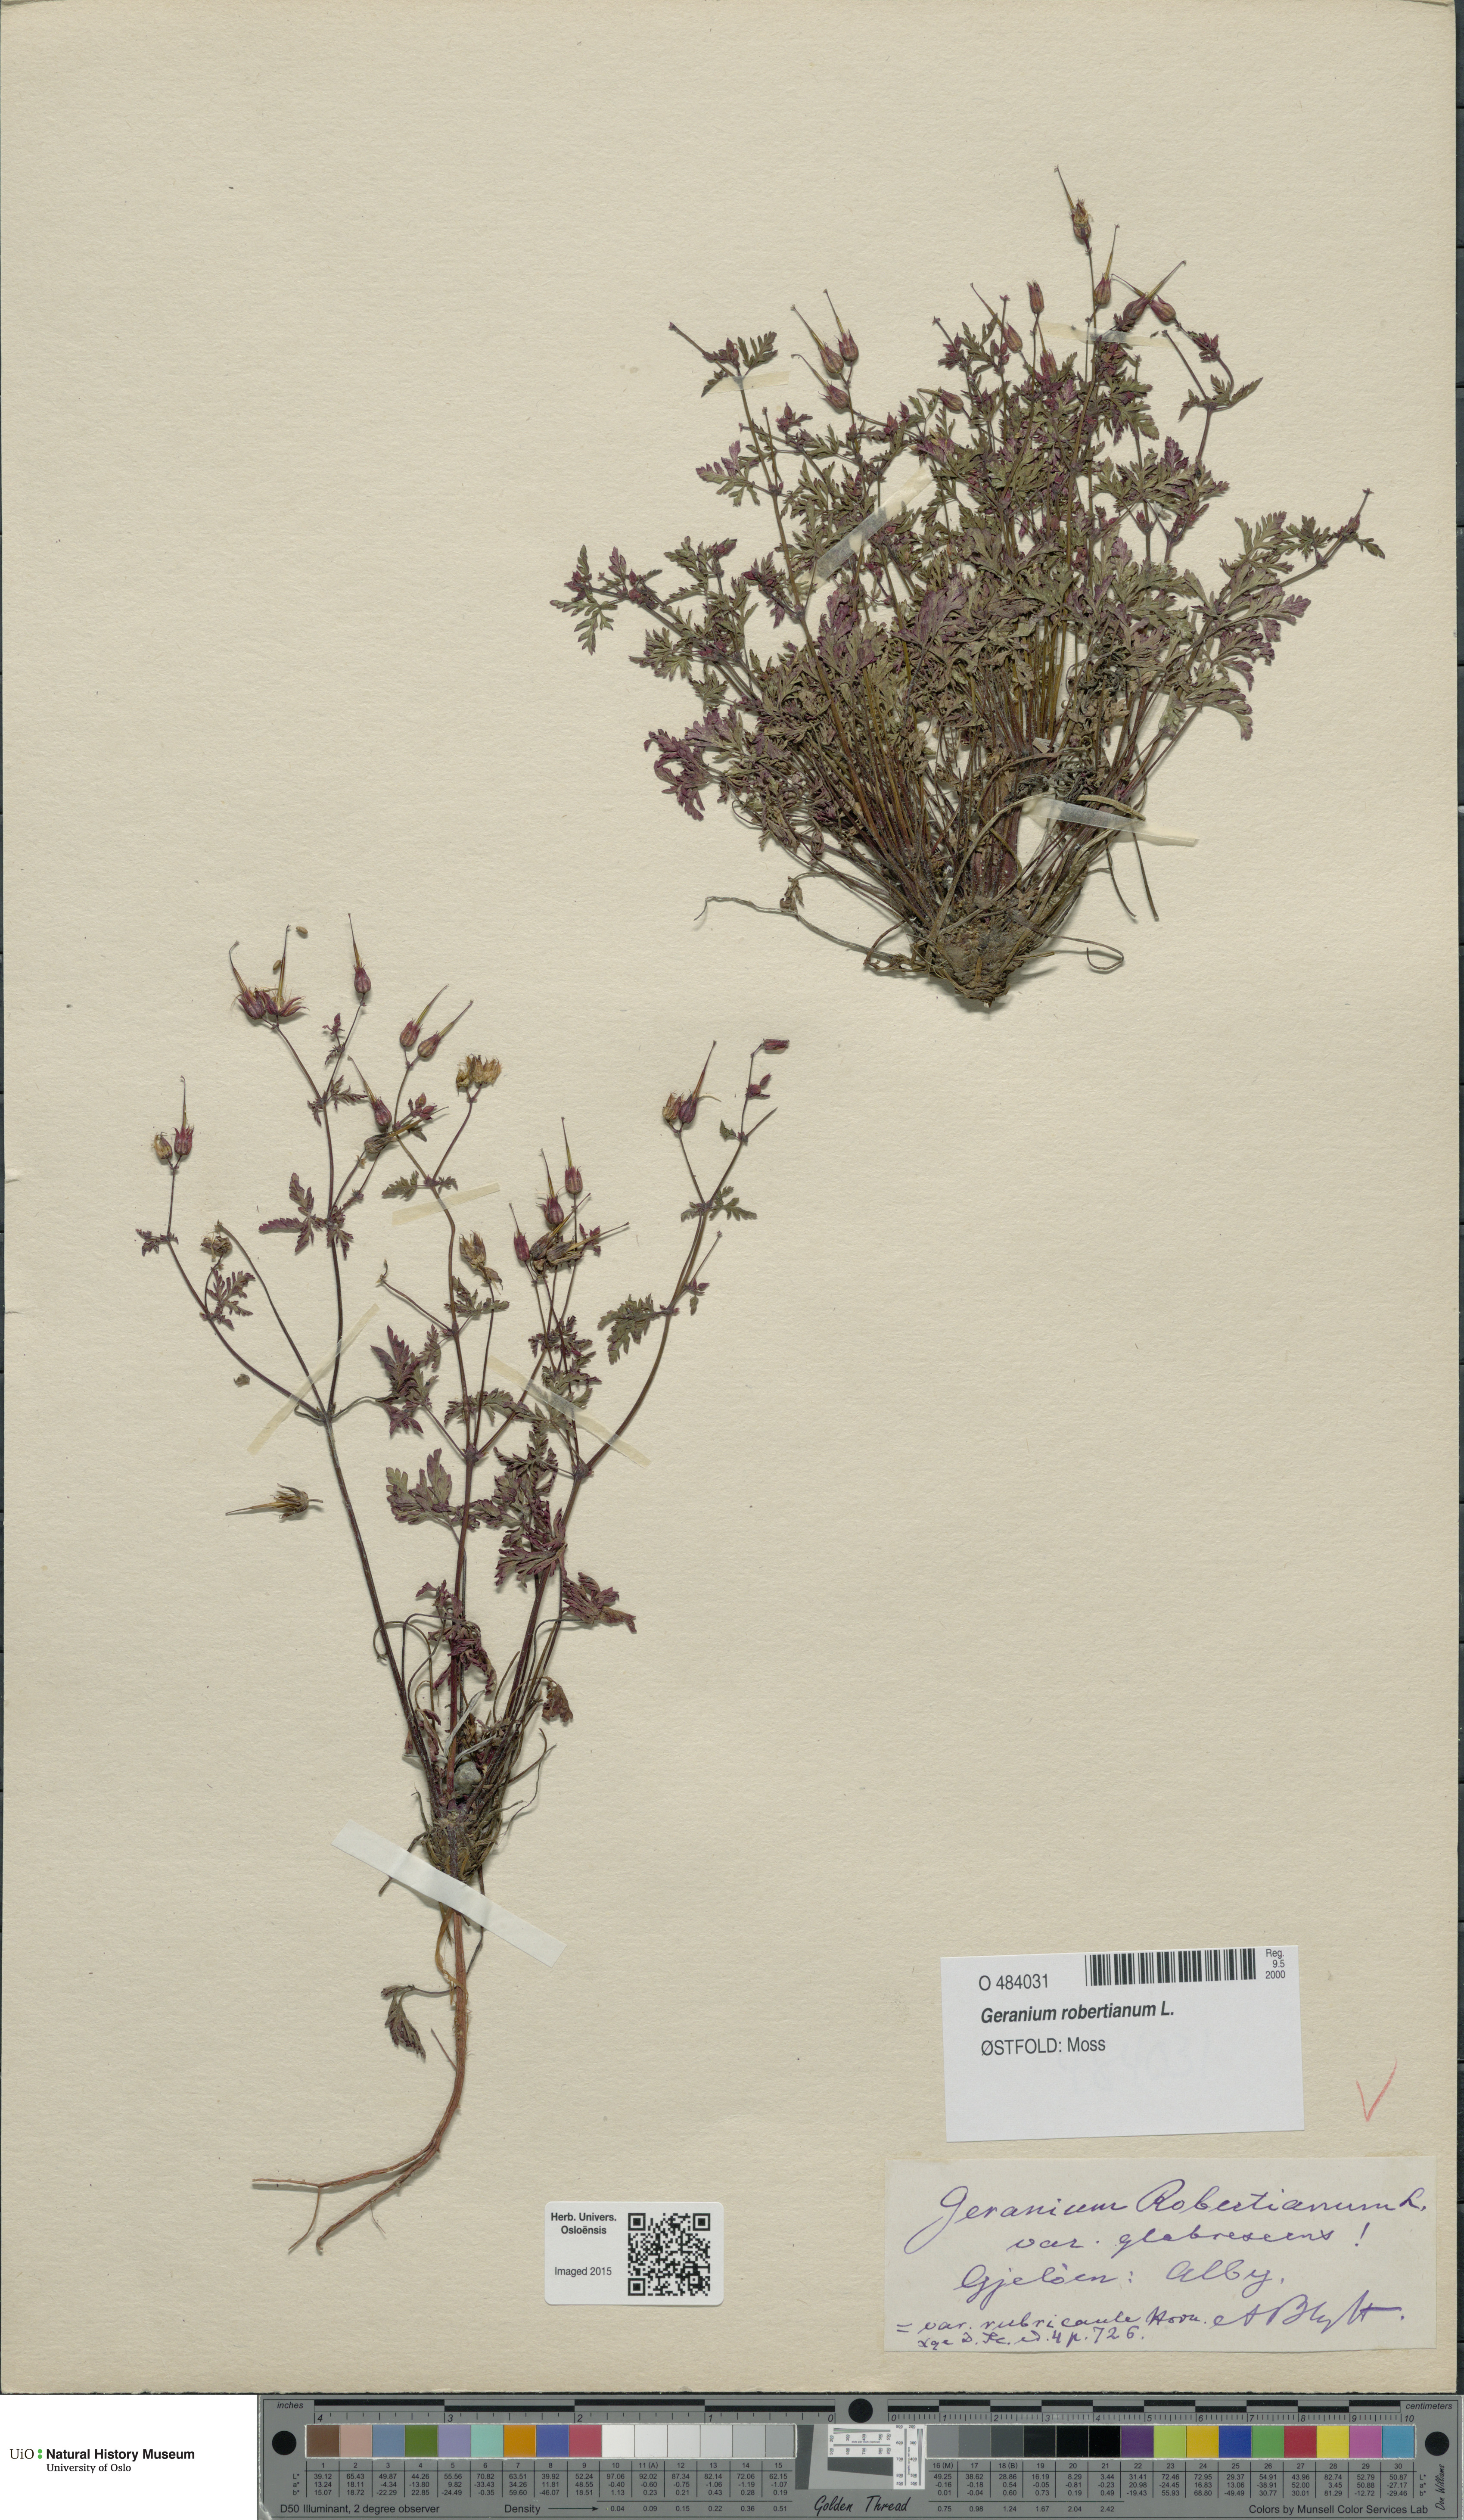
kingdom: Plantae
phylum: Tracheophyta
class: Magnoliopsida
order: Geraniales
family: Geraniaceae
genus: Geranium
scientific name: Geranium robertianum
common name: Herb-robert
